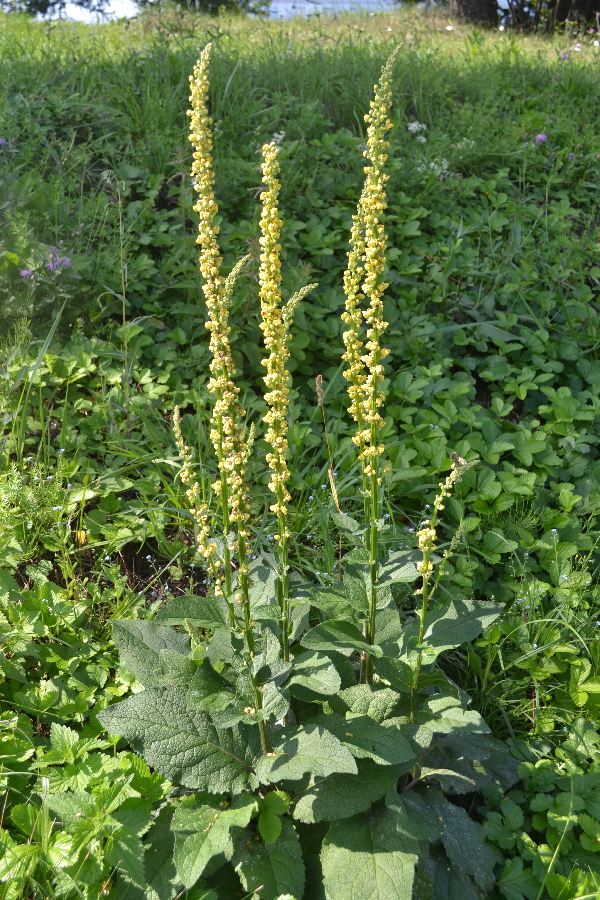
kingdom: Plantae
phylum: Tracheophyta
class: Magnoliopsida
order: Lamiales
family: Scrophulariaceae
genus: Verbascum
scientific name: Verbascum nigrum
